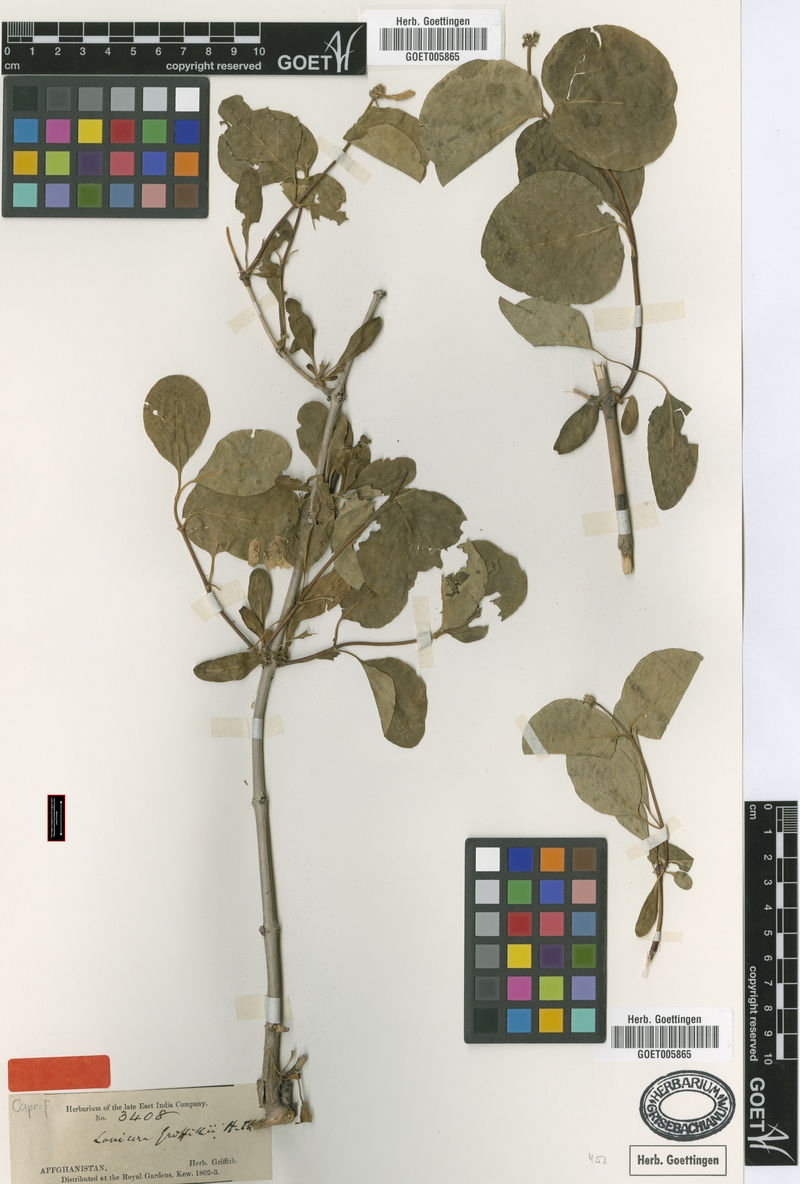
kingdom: Plantae
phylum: Tracheophyta
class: Magnoliopsida
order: Dipsacales
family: Caprifoliaceae
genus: Lonicera
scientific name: Lonicera griffithii
